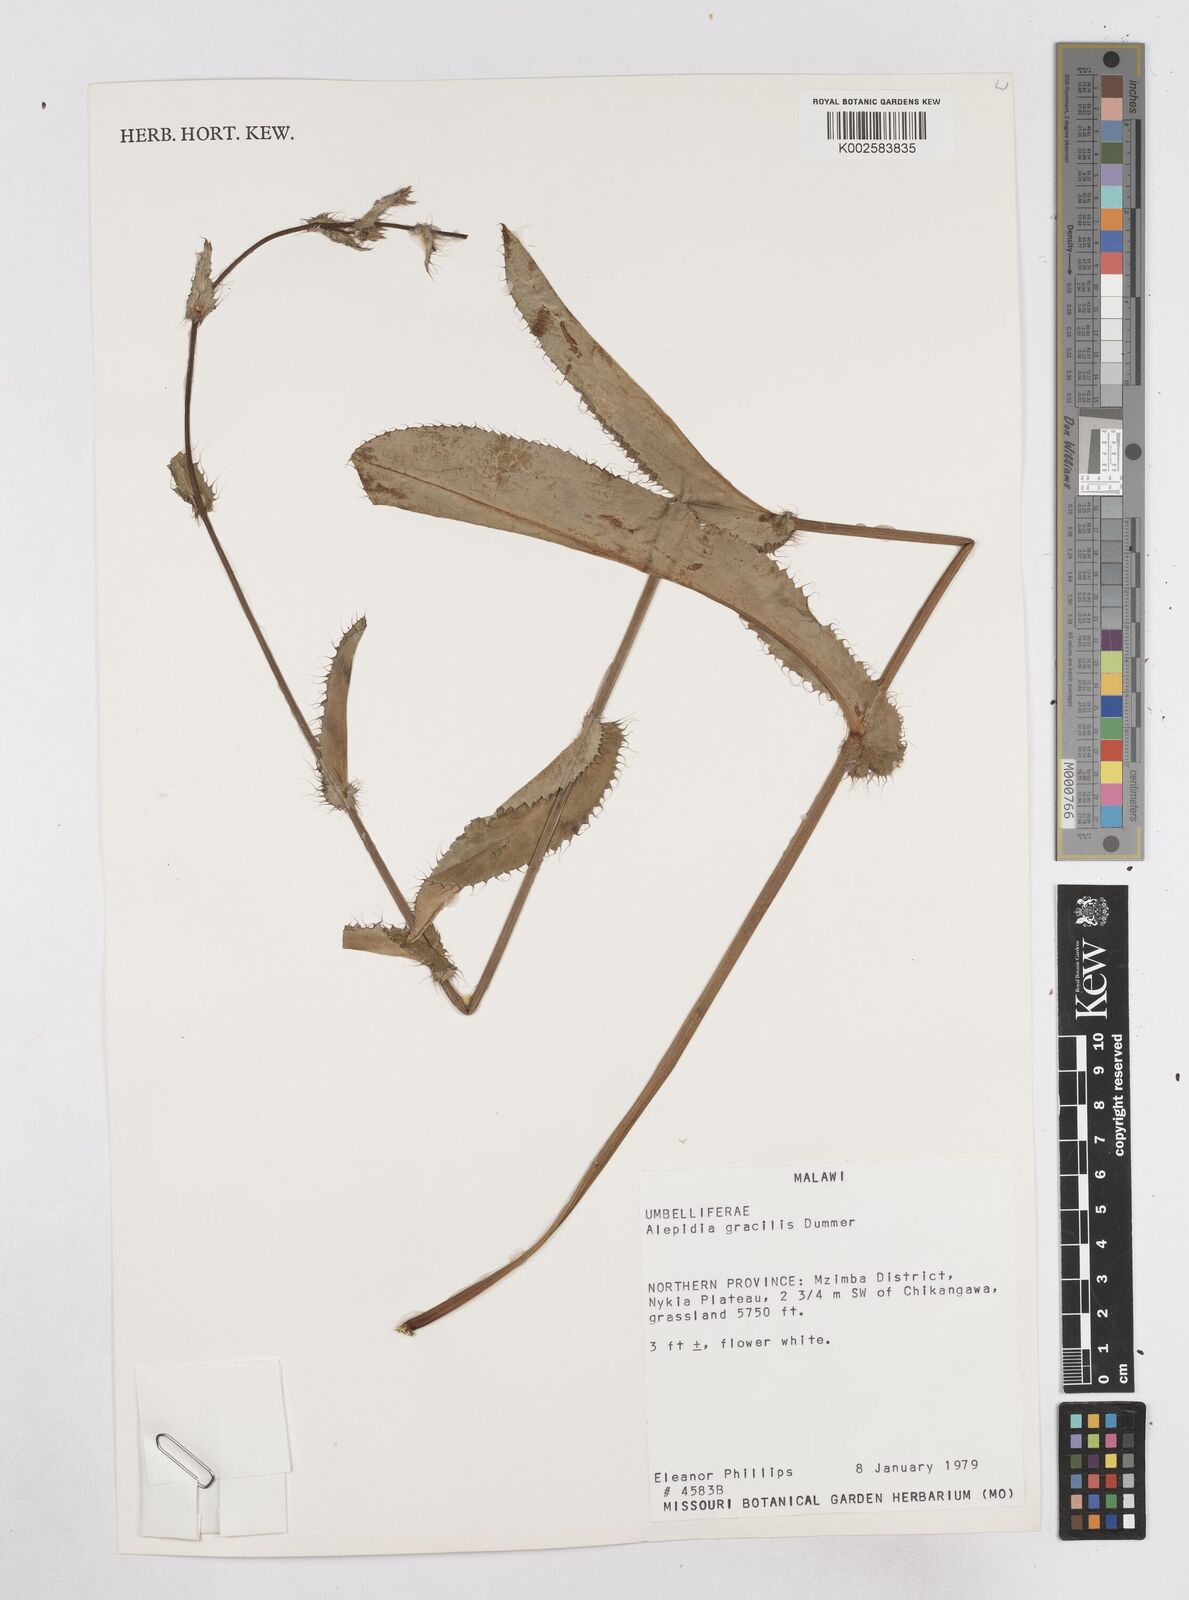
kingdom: Plantae
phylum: Tracheophyta
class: Magnoliopsida
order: Apiales
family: Apiaceae
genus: Alepidea
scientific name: Alepidea peduncularis
